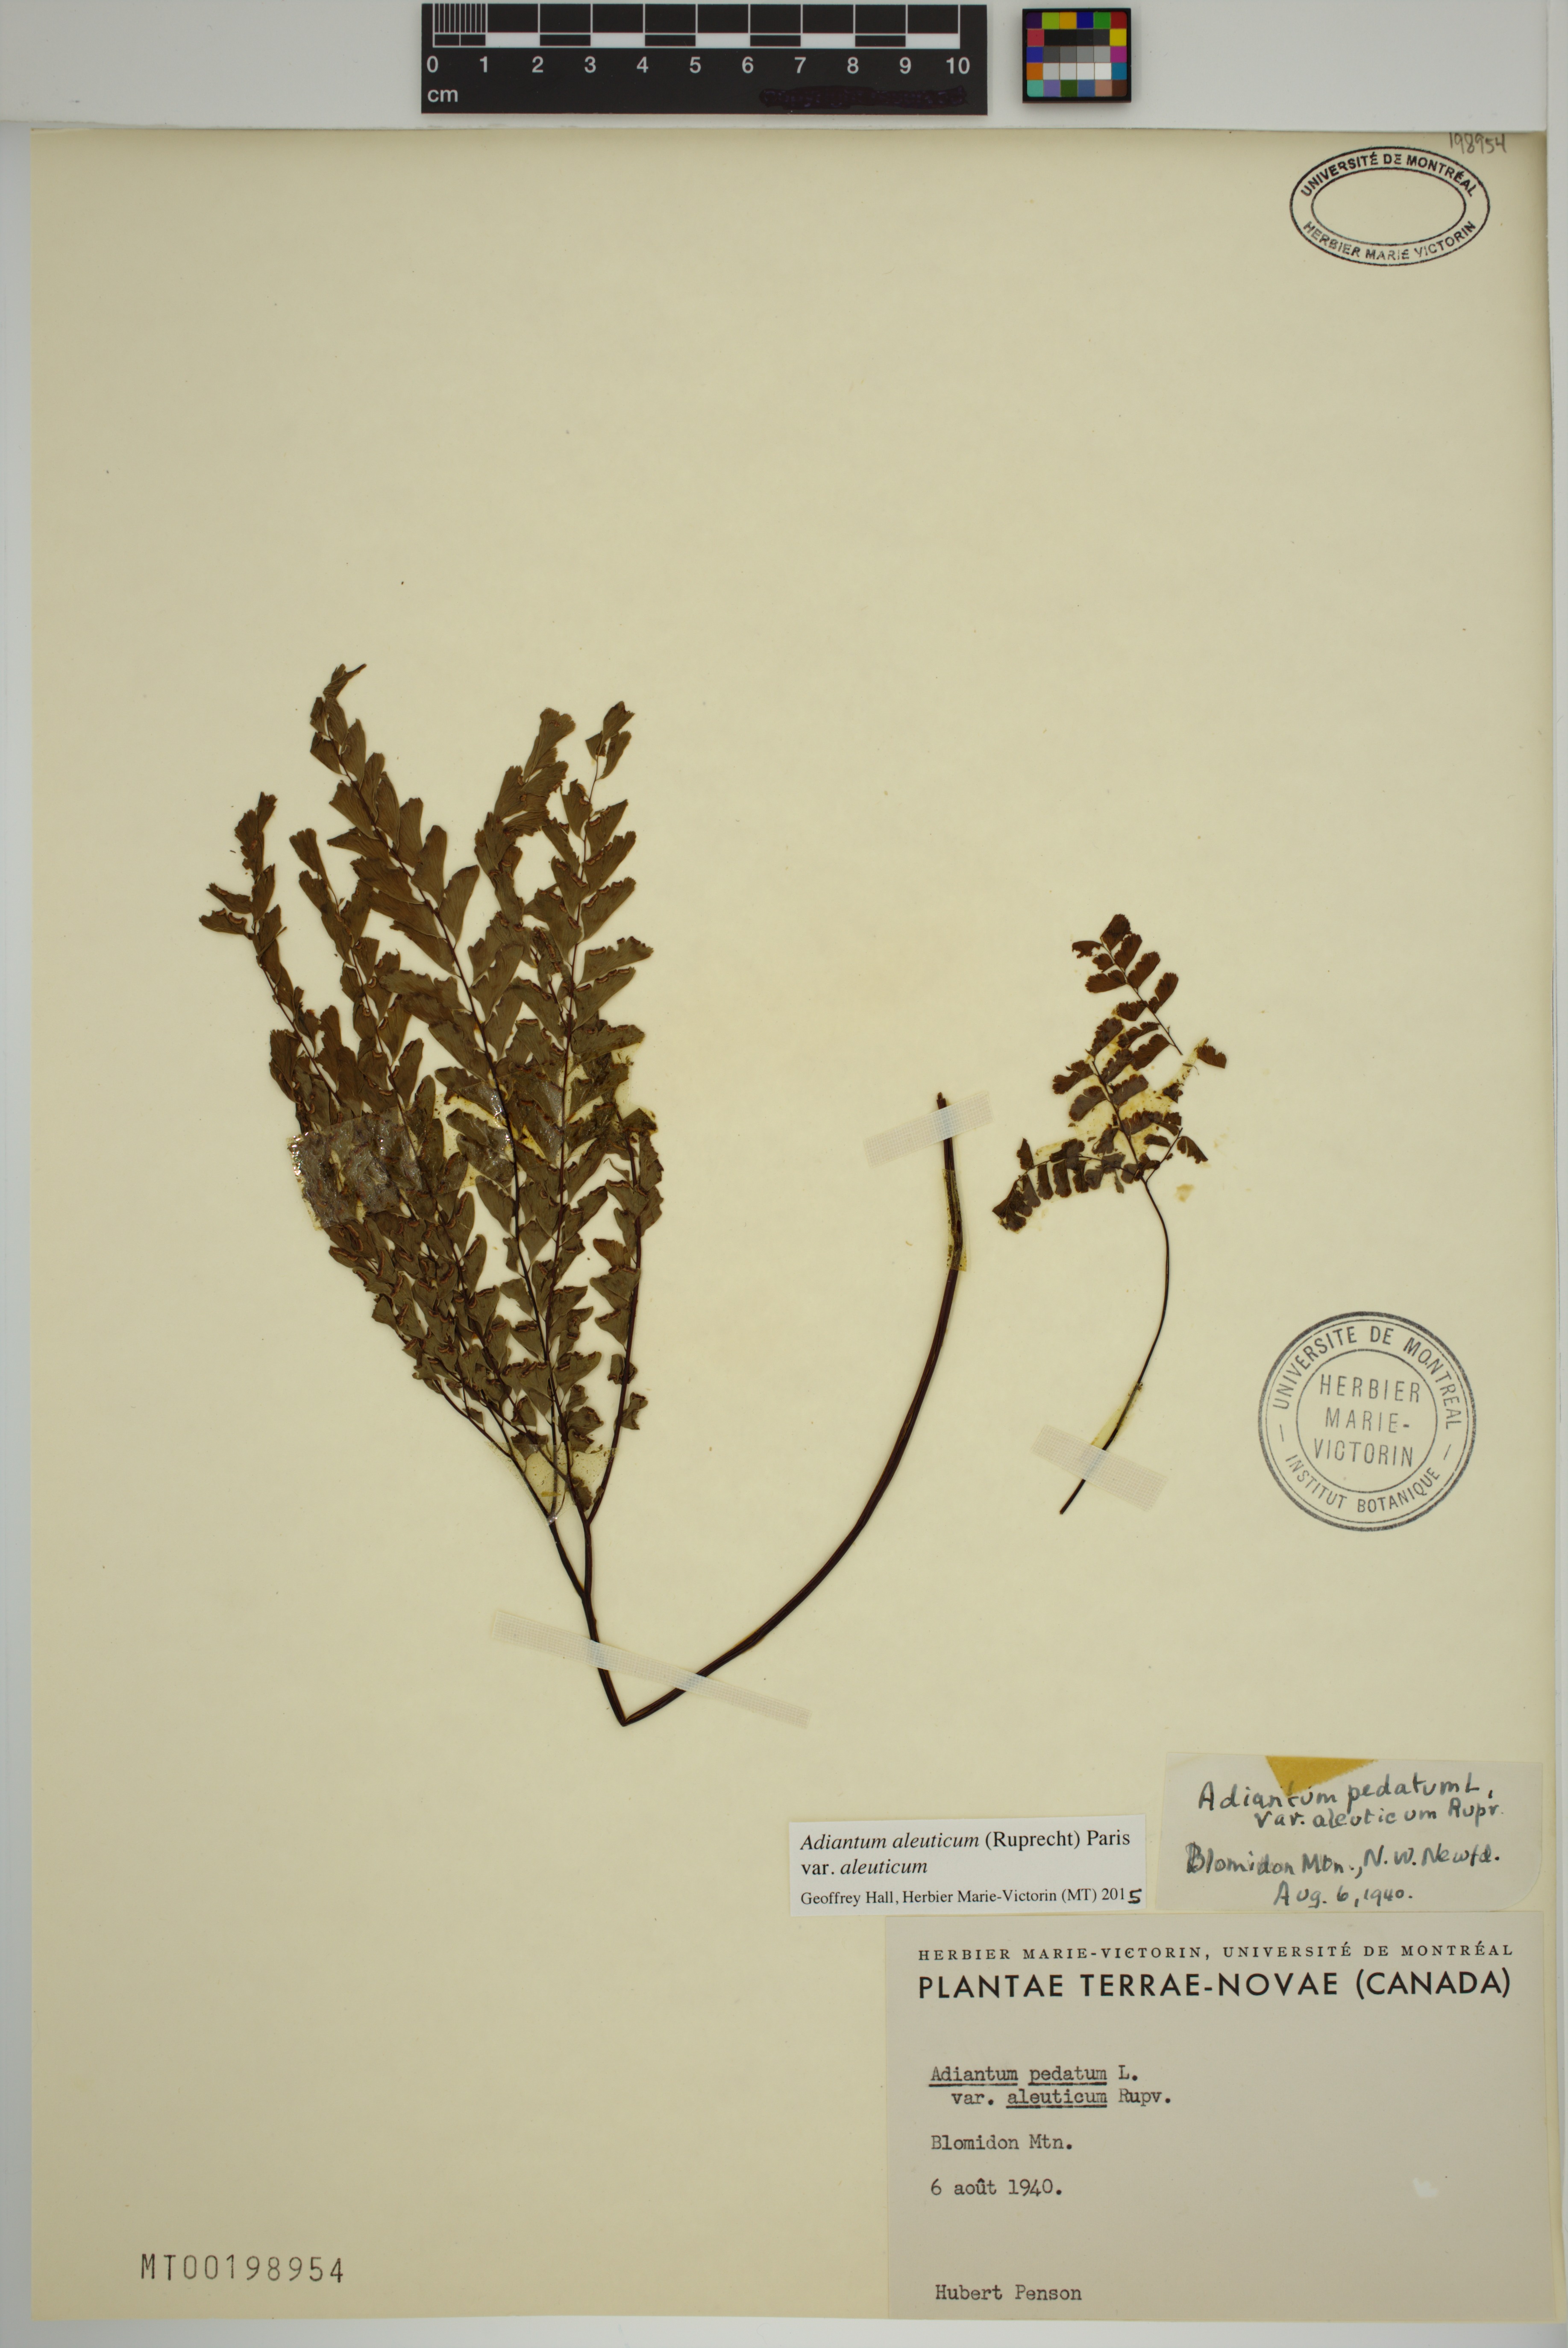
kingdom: Plantae
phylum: Tracheophyta
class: Polypodiopsida
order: Polypodiales
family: Pteridaceae
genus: Adiantum
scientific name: Adiantum aleuticum
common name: Aleutian maidenhair fern
